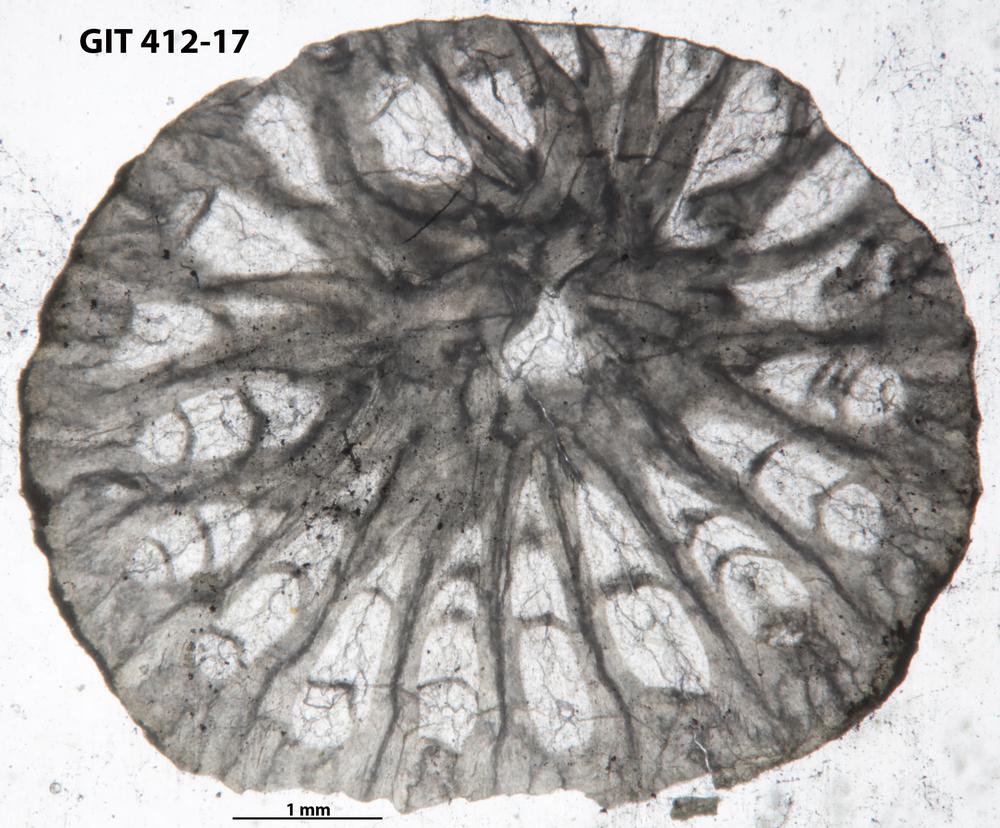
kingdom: Animalia
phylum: Cnidaria
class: Anthozoa
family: Streptelasmatidae
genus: Axolasma
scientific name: Axolasma
